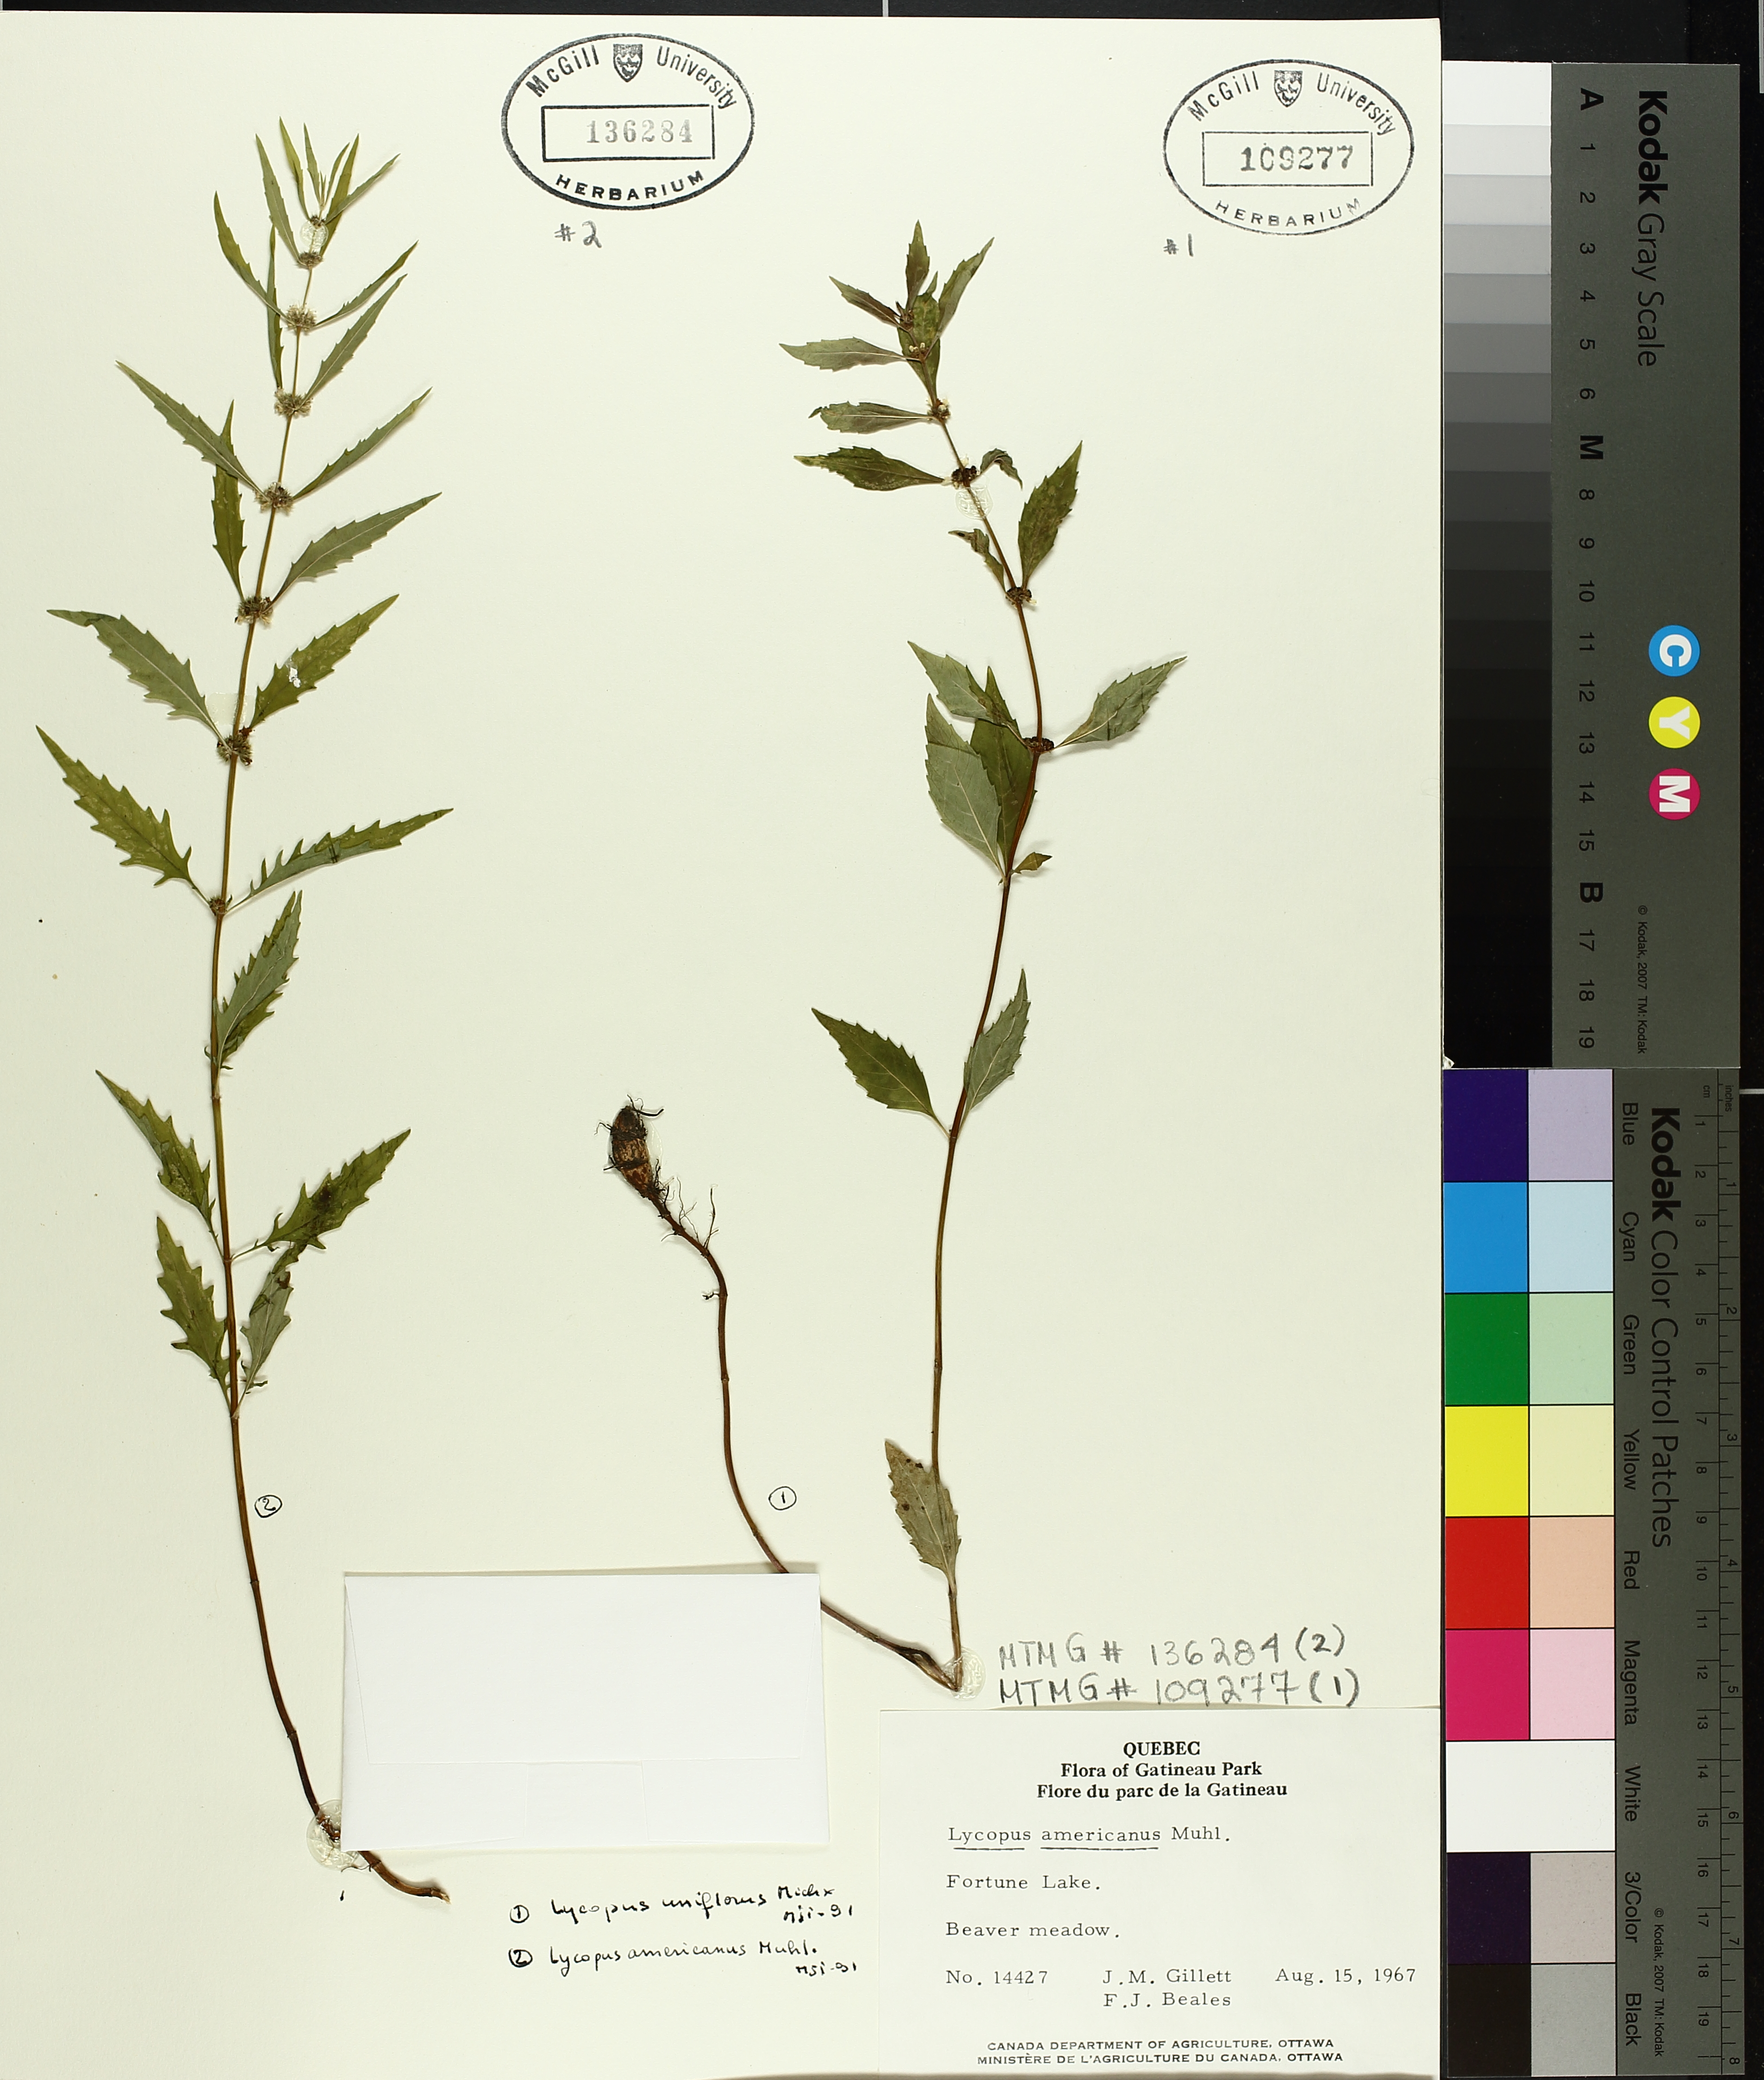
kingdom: Plantae
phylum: Tracheophyta
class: Magnoliopsida
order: Lamiales
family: Lamiaceae
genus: Lycopus
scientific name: Lycopus americanus
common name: American bugleweed
